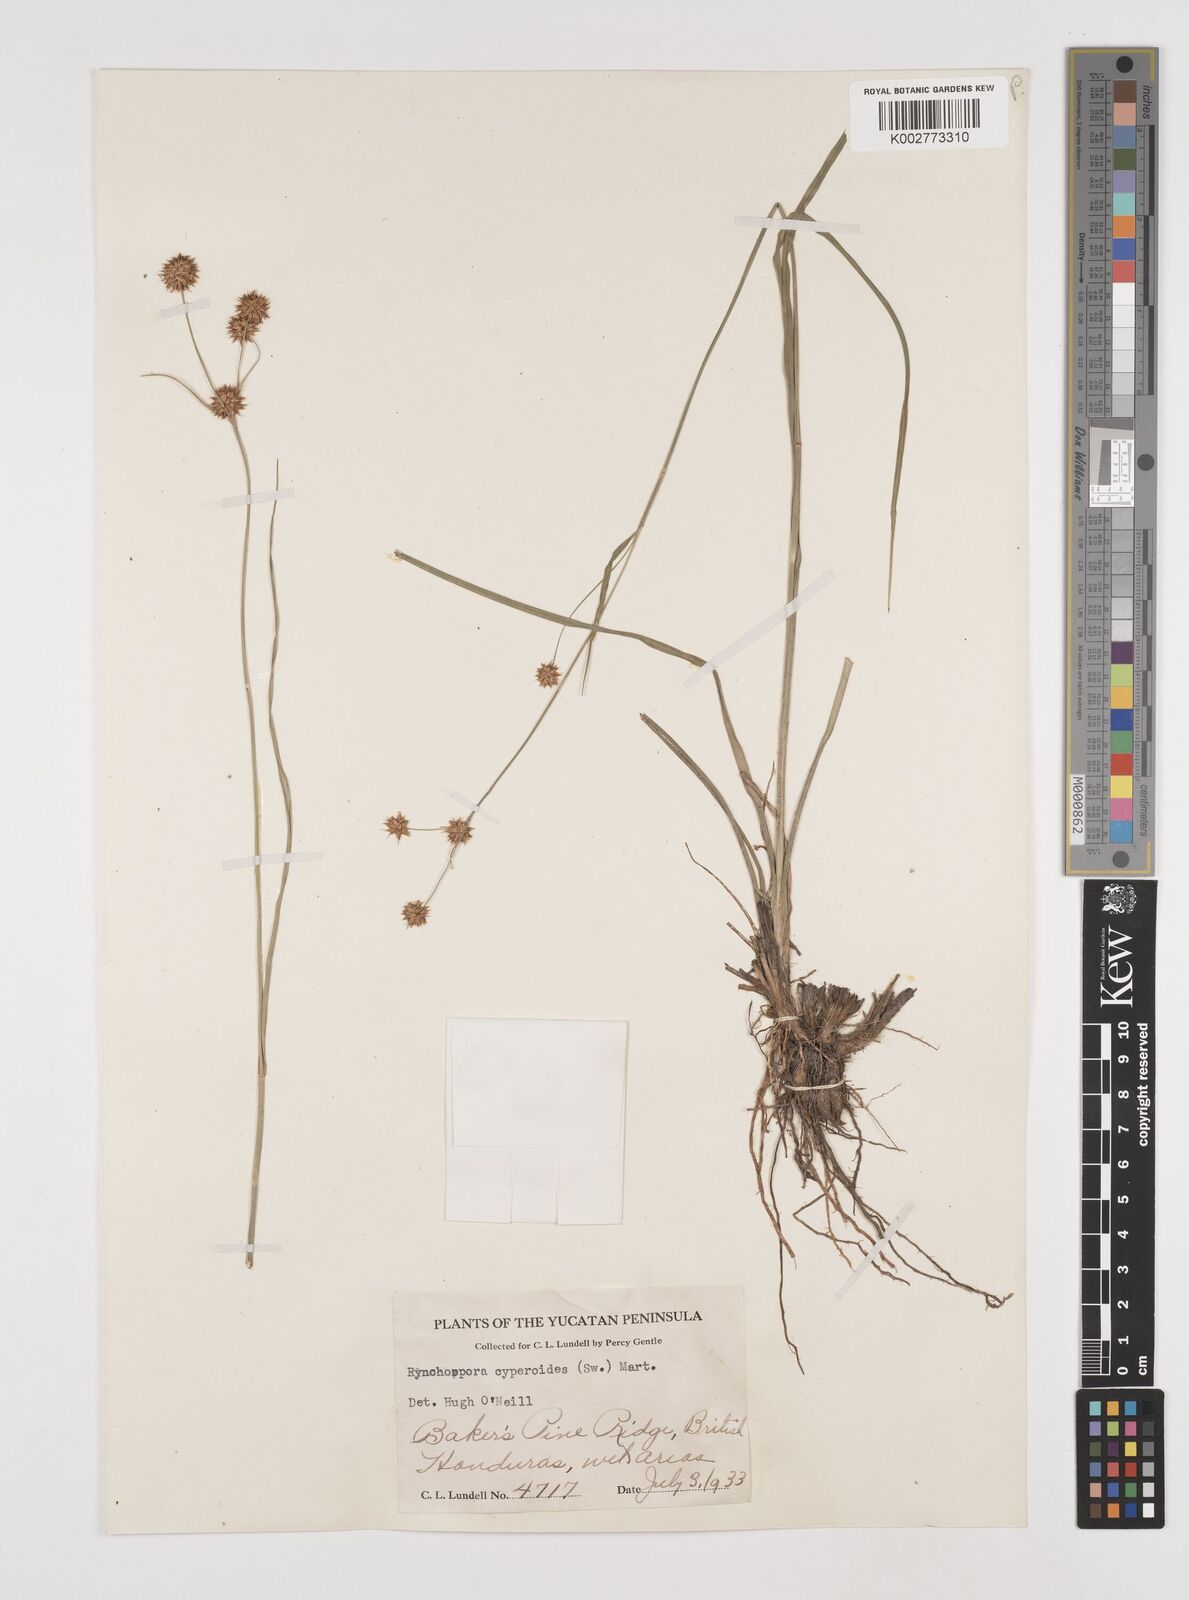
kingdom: Plantae
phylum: Tracheophyta
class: Liliopsida
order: Poales
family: Cyperaceae
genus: Rhynchospora
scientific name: Rhynchospora holoschoenoides
